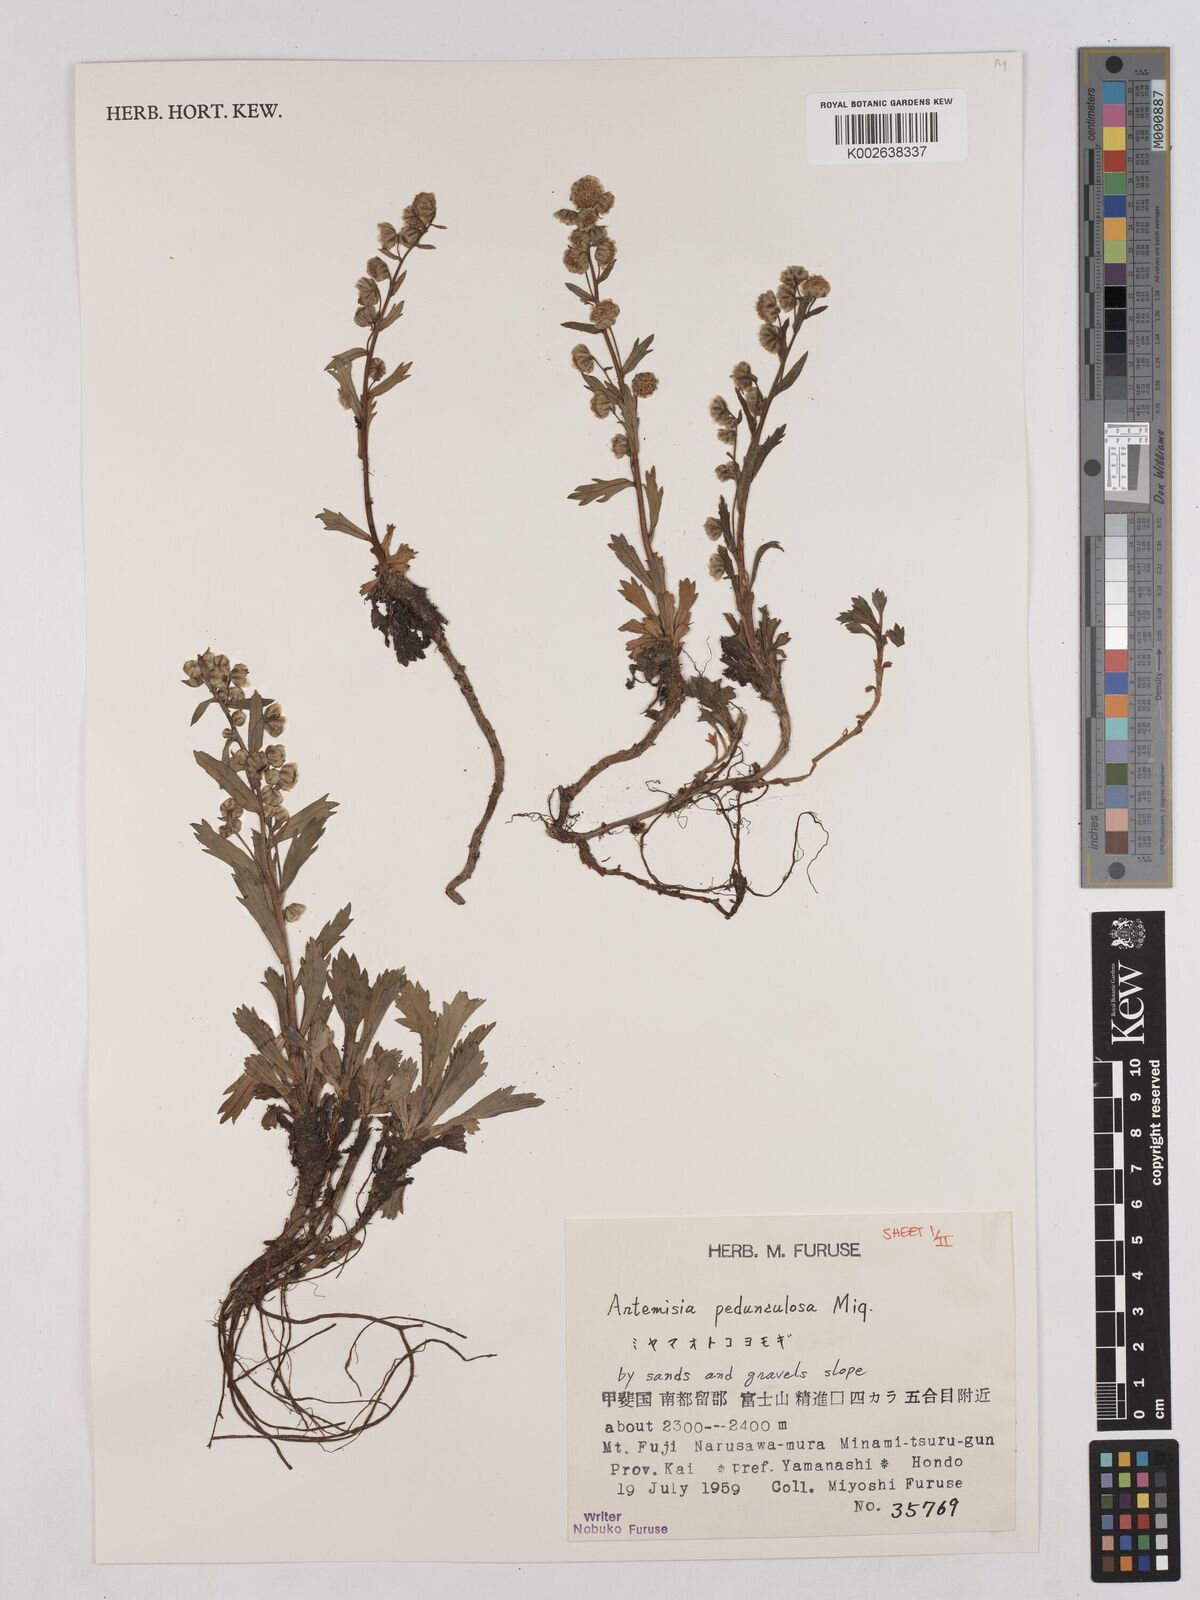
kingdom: Plantae
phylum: Tracheophyta
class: Magnoliopsida
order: Asterales
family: Asteraceae
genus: Artemisia
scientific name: Artemisia pedunculosa
